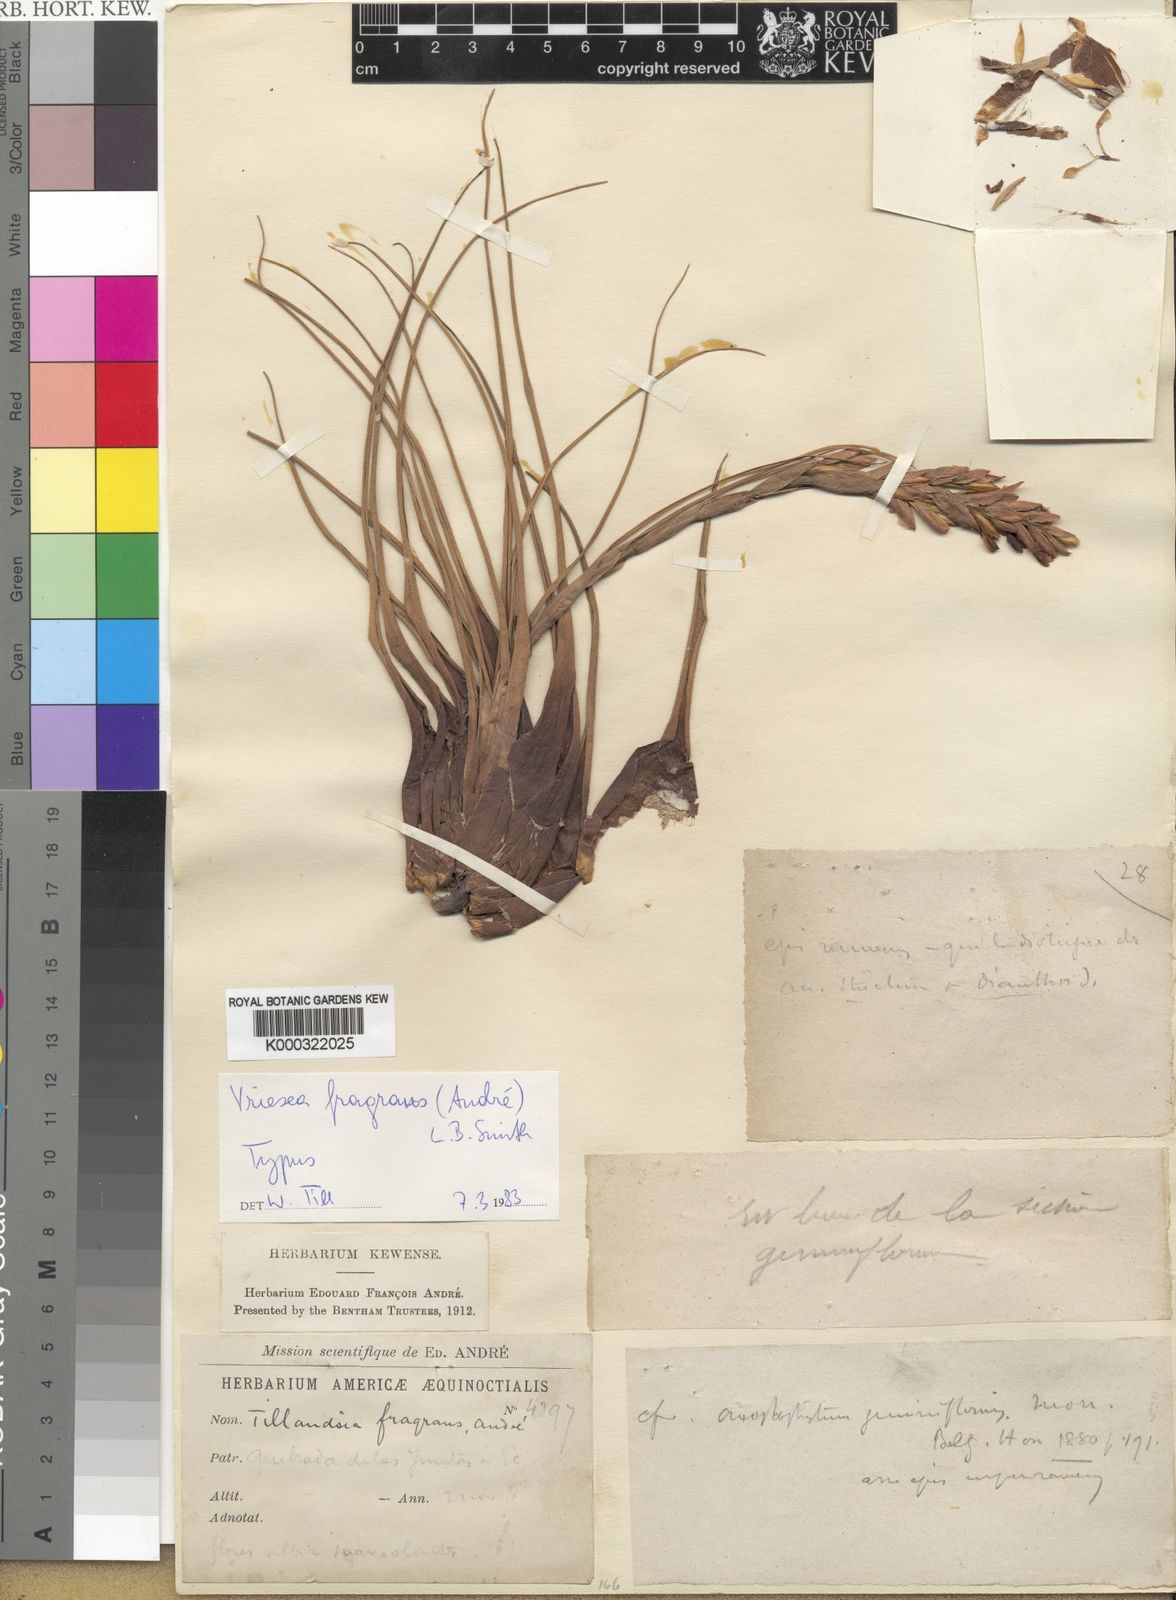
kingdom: Plantae
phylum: Tracheophyta
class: Liliopsida
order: Poales
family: Bromeliaceae
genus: Tillandsia
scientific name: Tillandsia fragrans
